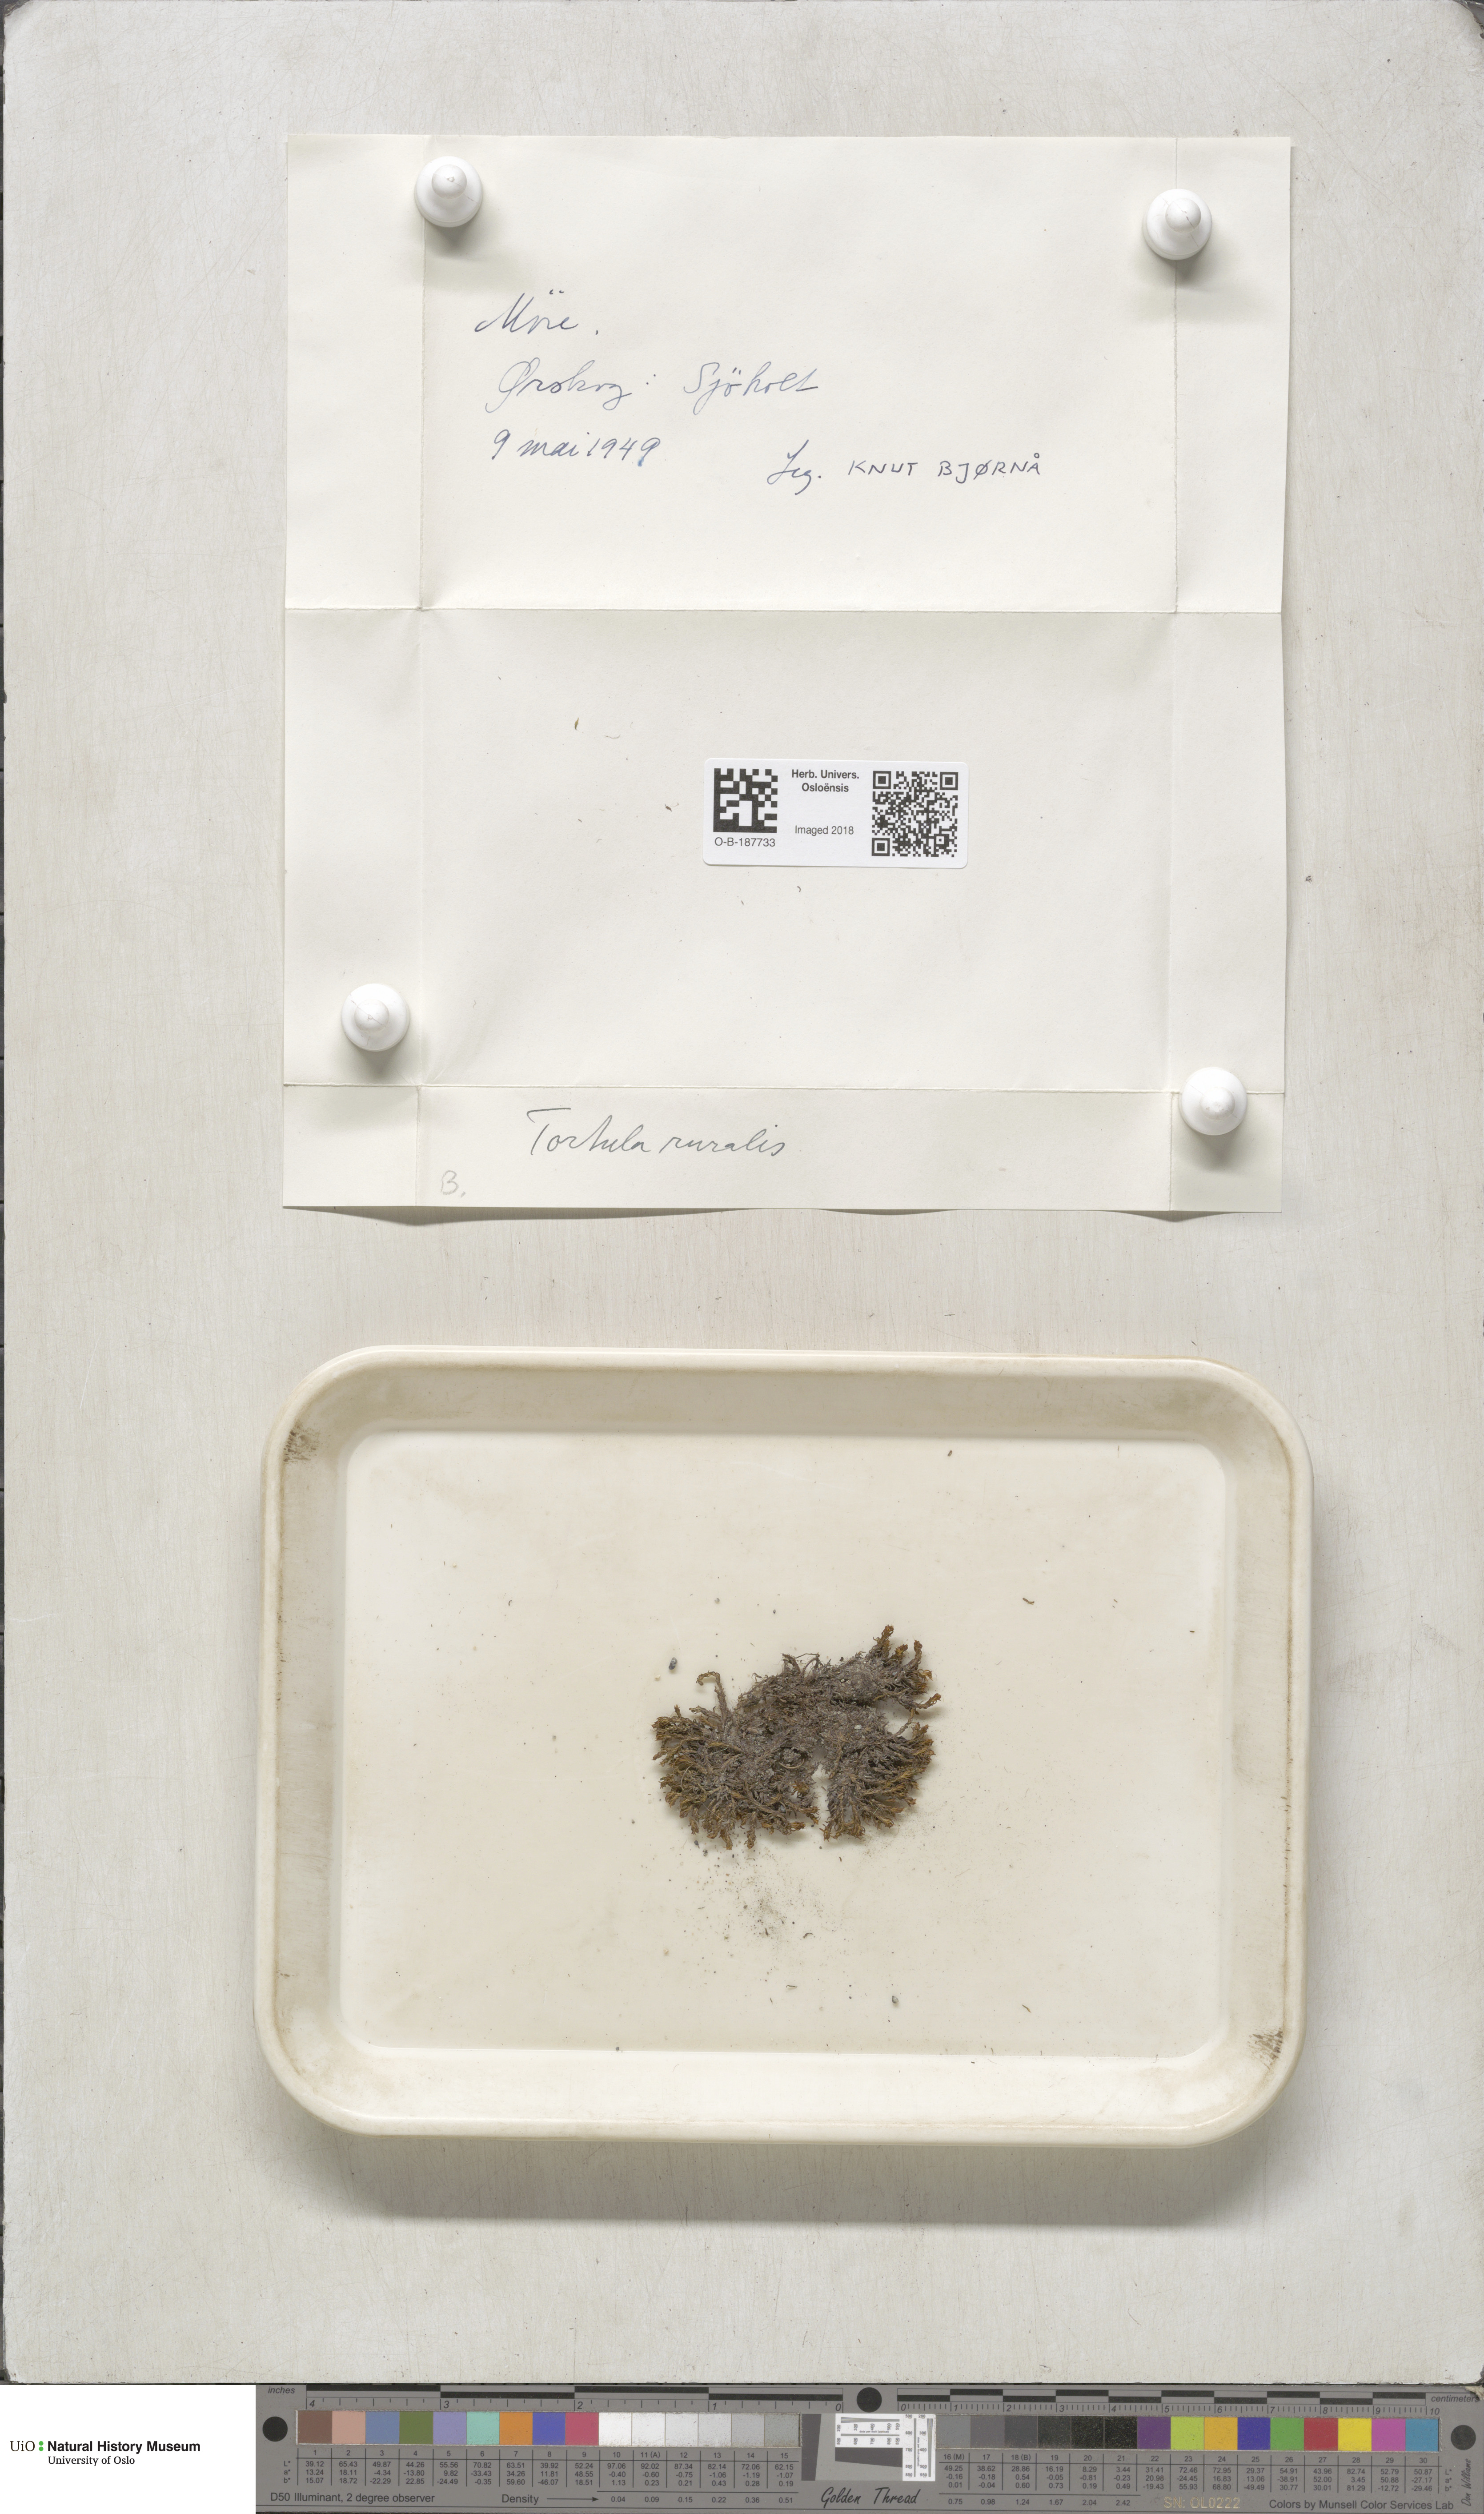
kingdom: Plantae
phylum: Bryophyta
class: Bryopsida
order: Pottiales
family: Pottiaceae
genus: Syntrichia
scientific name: Syntrichia ruralis
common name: Sidewalk screw moss
